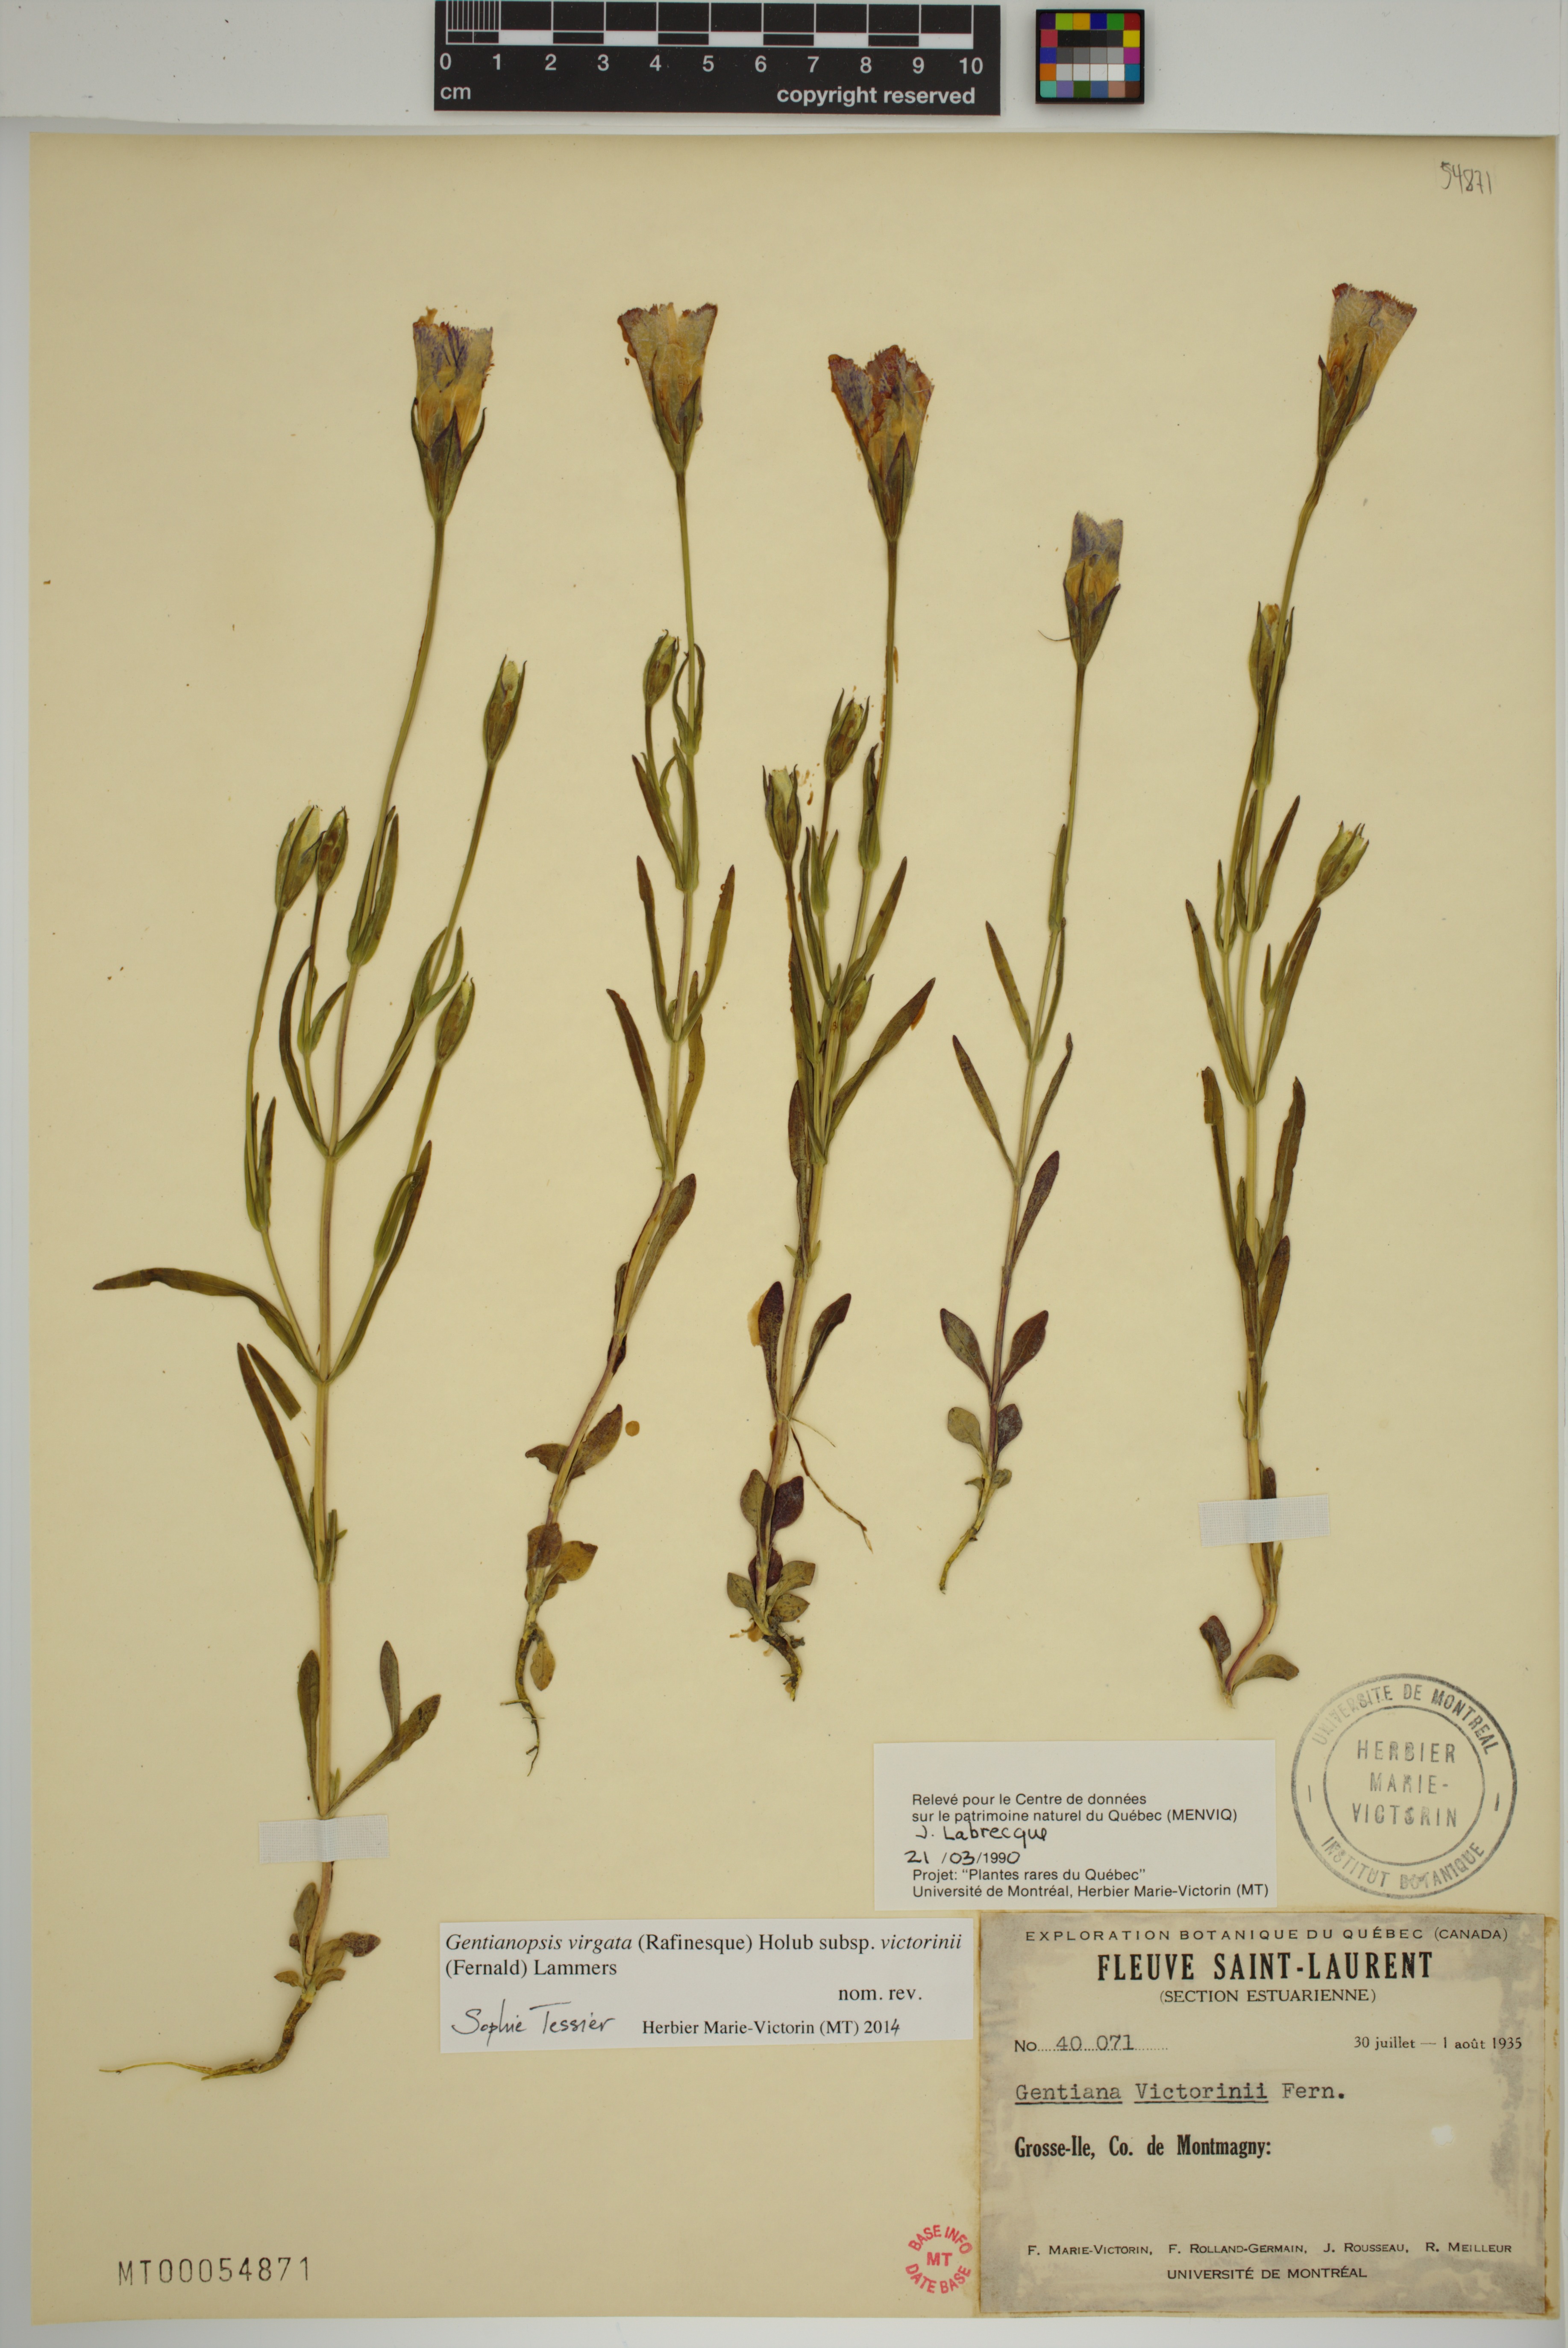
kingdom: Plantae
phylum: Tracheophyta
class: Magnoliopsida
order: Gentianales
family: Gentianaceae
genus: Gentianopsis
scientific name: Gentianopsis victorinii
